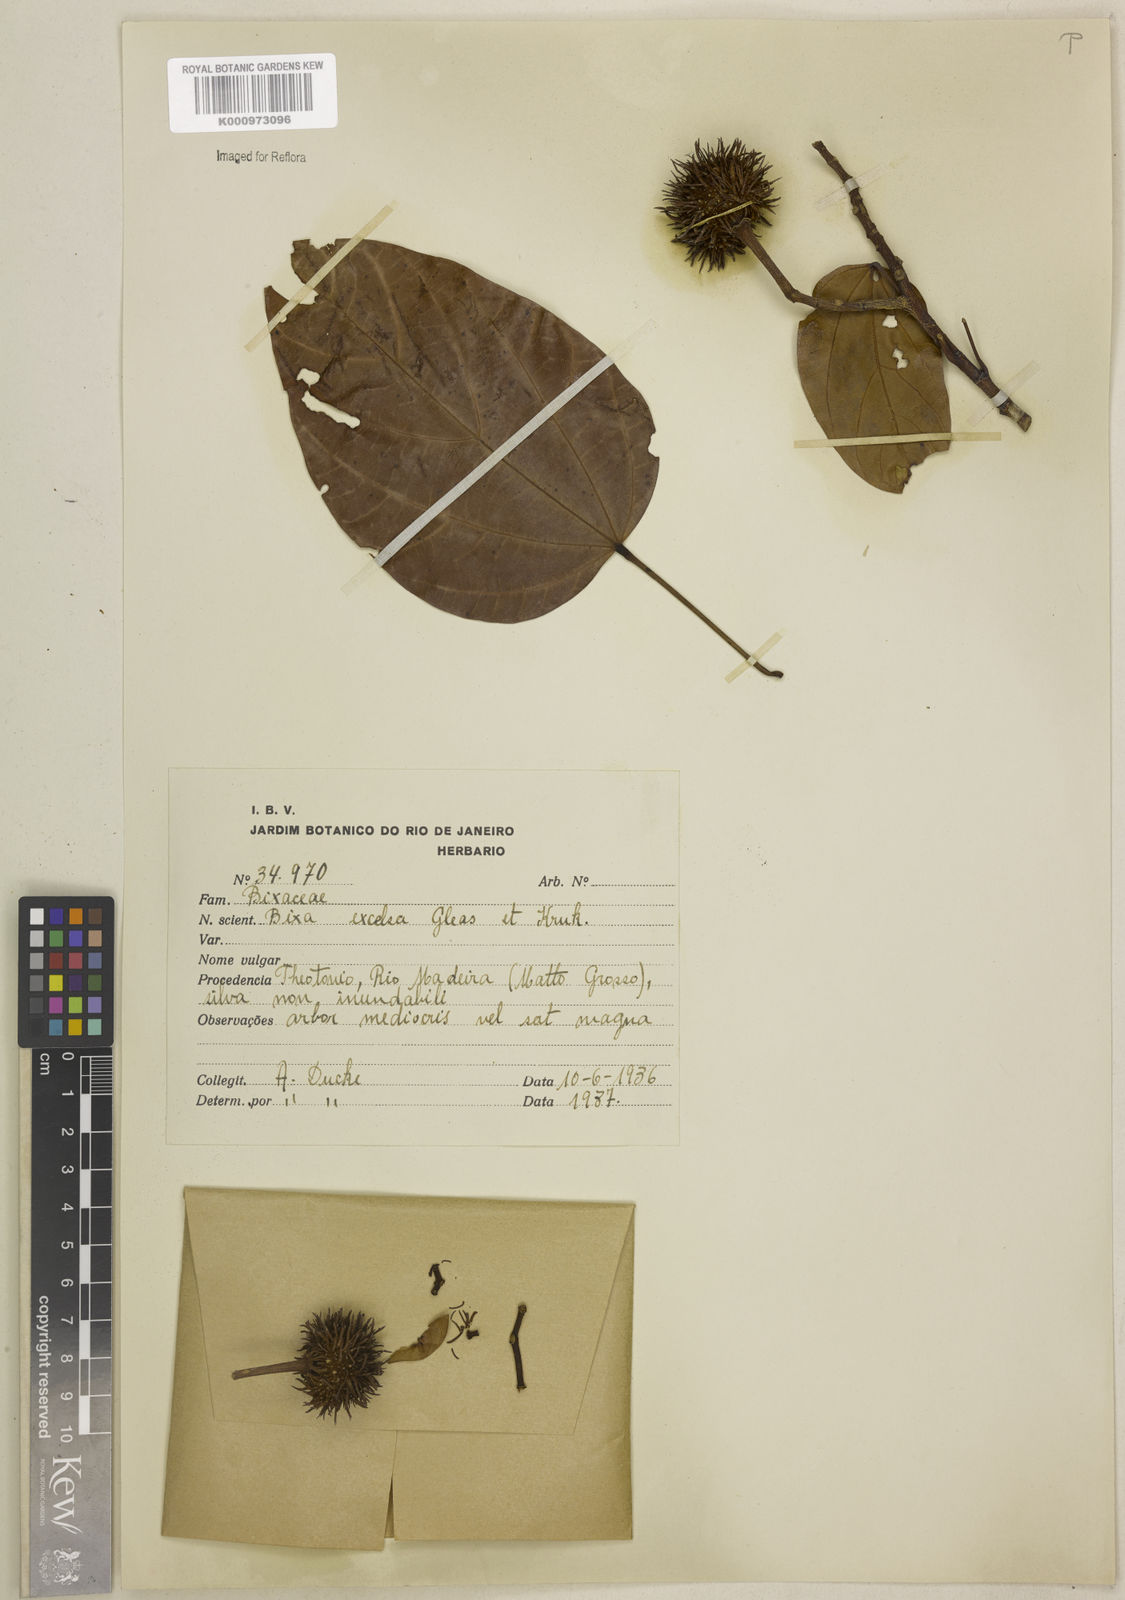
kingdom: Plantae
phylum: Tracheophyta
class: Magnoliopsida
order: Malvales
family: Bixaceae
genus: Bixa
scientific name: Bixa excelsa
